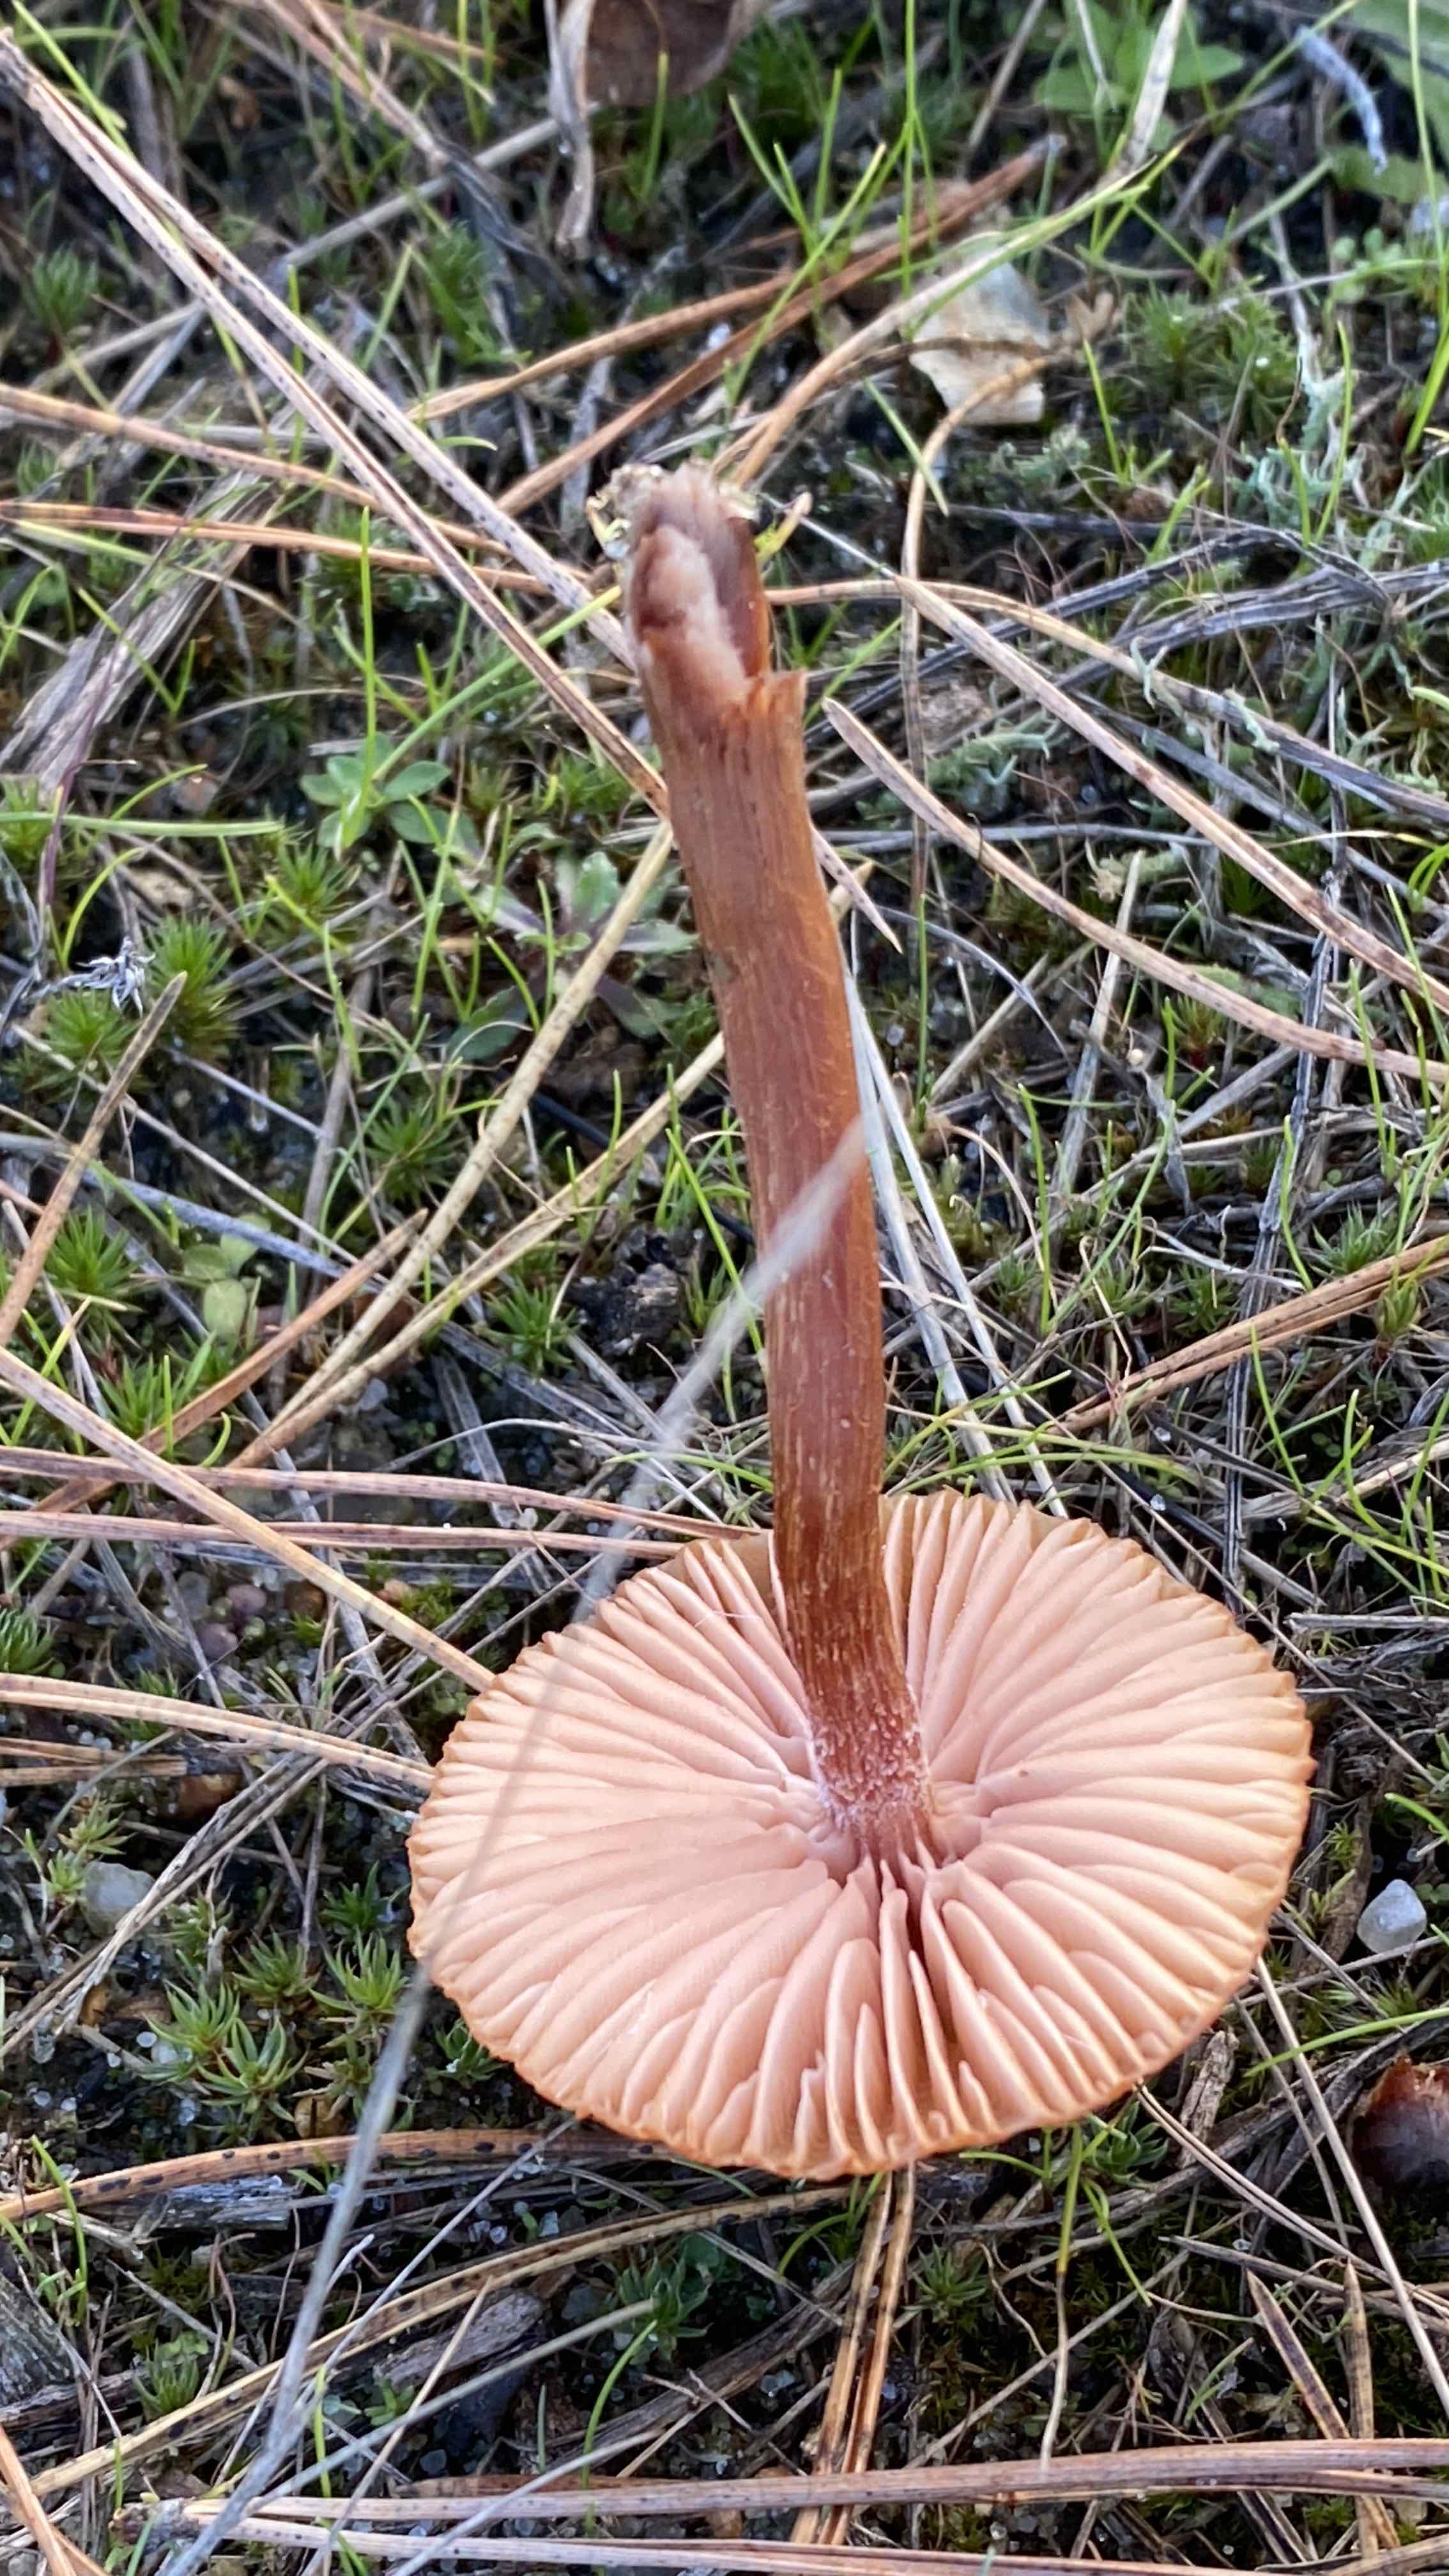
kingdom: Fungi
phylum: Basidiomycota
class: Agaricomycetes
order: Agaricales
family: Hydnangiaceae
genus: Laccaria
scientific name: Laccaria proxima
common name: stor ametysthat
